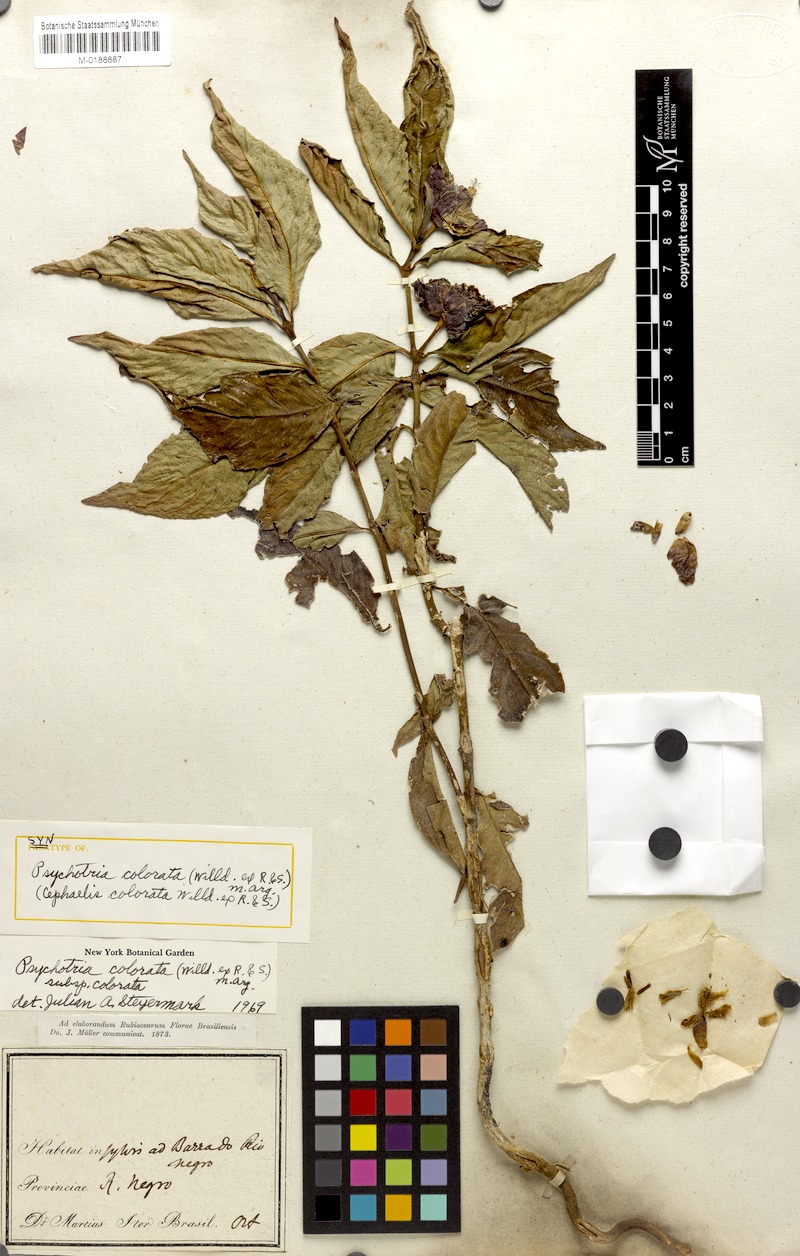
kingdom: Plantae
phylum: Tracheophyta
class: Magnoliopsida
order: Gentianales
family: Rubiaceae
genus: Palicourea
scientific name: Palicourea colorata
